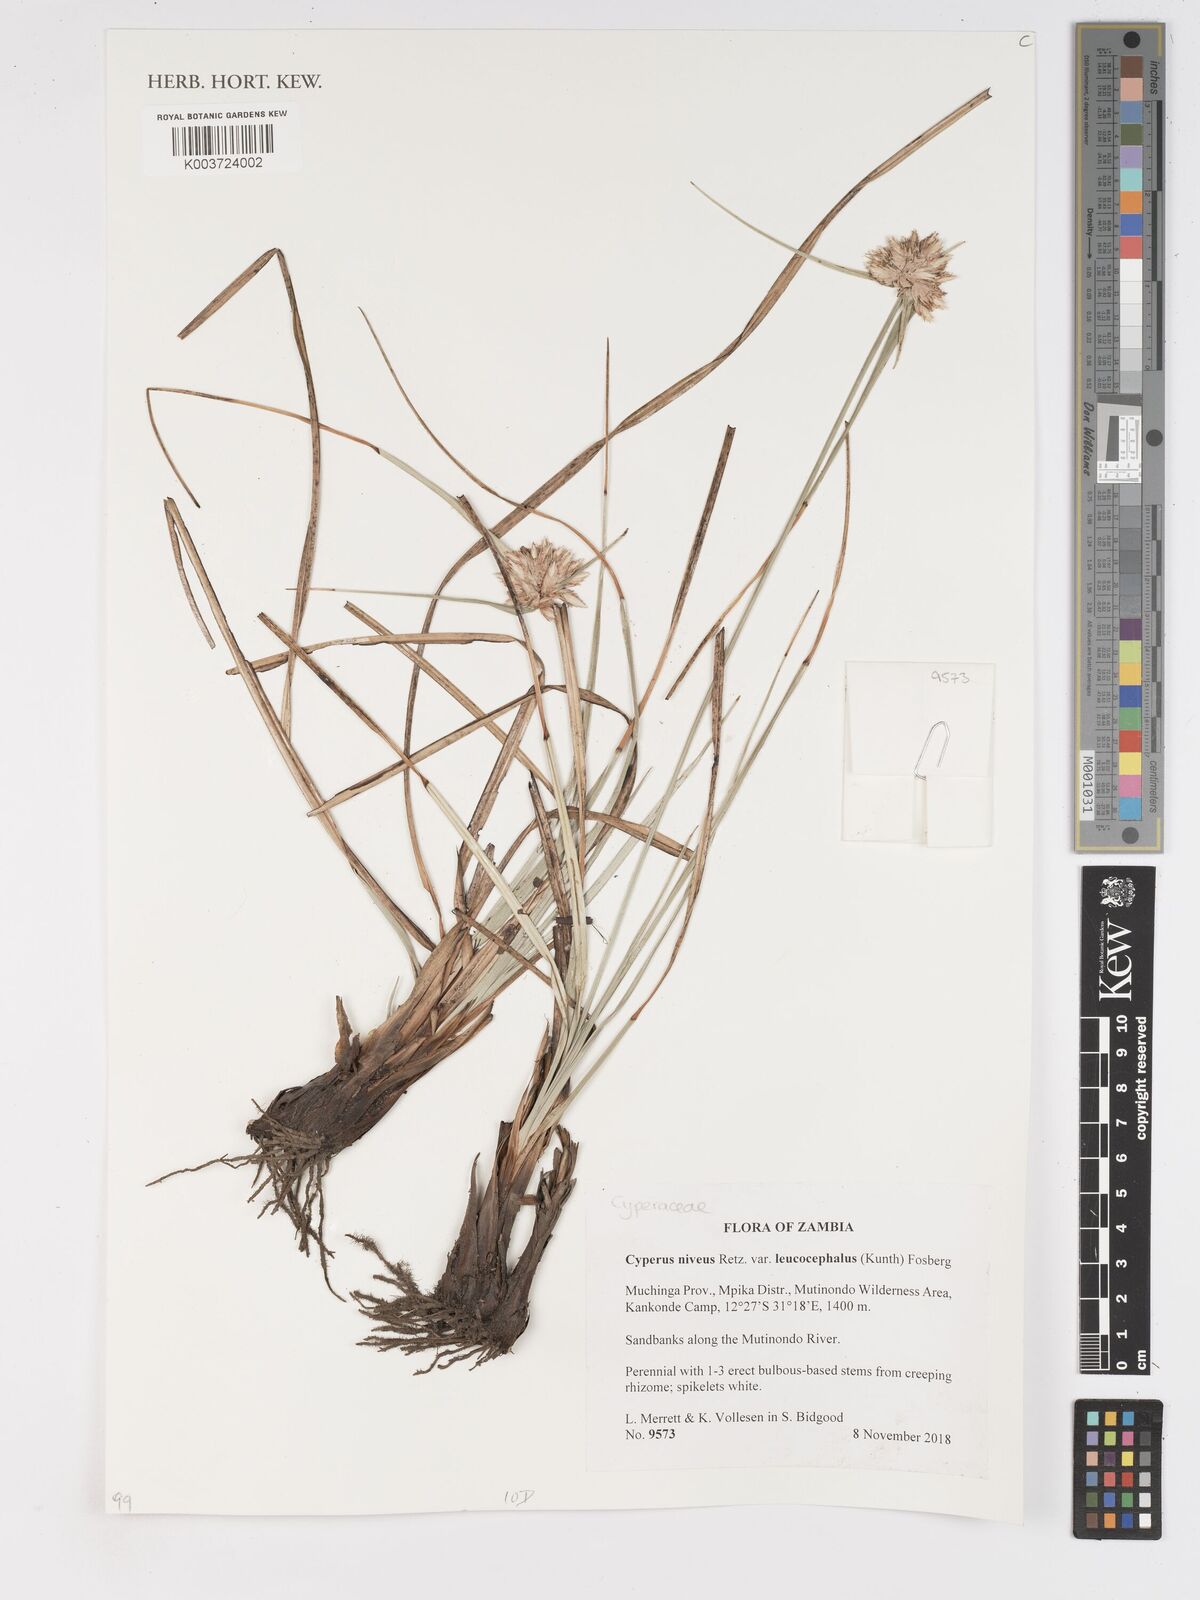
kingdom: Plantae
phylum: Tracheophyta
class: Liliopsida
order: Poales
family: Cyperaceae
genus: Cyperus
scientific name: Cyperus niveus
